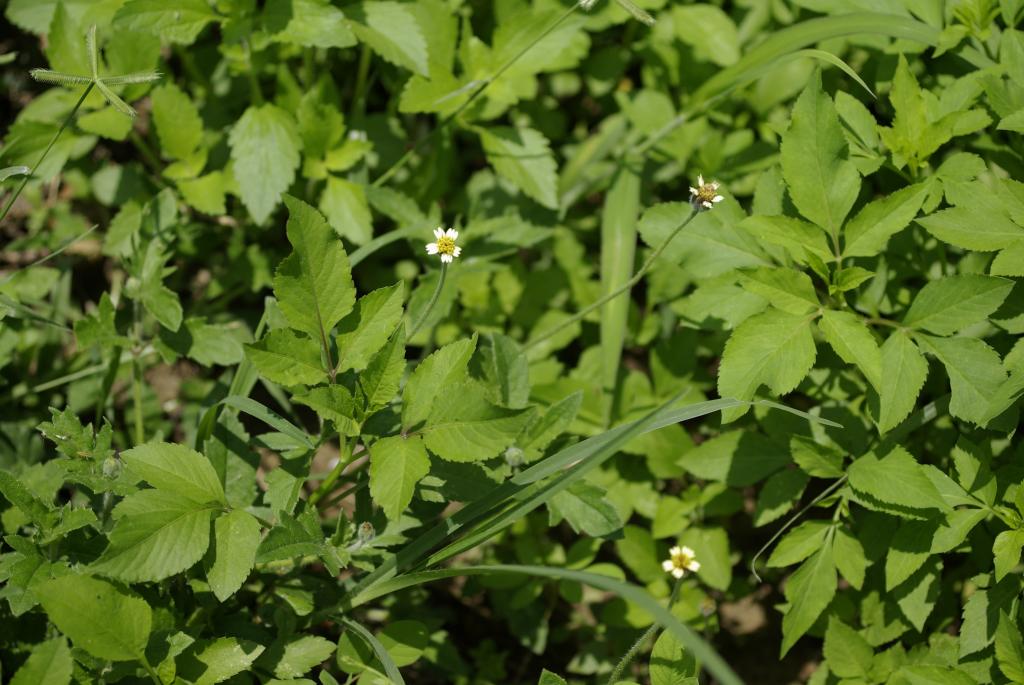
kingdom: Plantae
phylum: Tracheophyta
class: Magnoliopsida
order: Asterales
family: Asteraceae
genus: Tridax
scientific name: Tridax procumbens
